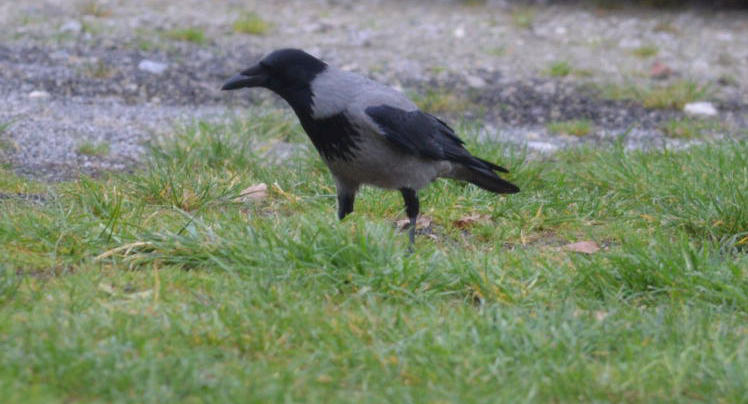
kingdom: Animalia
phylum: Chordata
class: Aves
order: Passeriformes
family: Corvidae
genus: Corvus
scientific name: Corvus cornix
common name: Hooded crow
